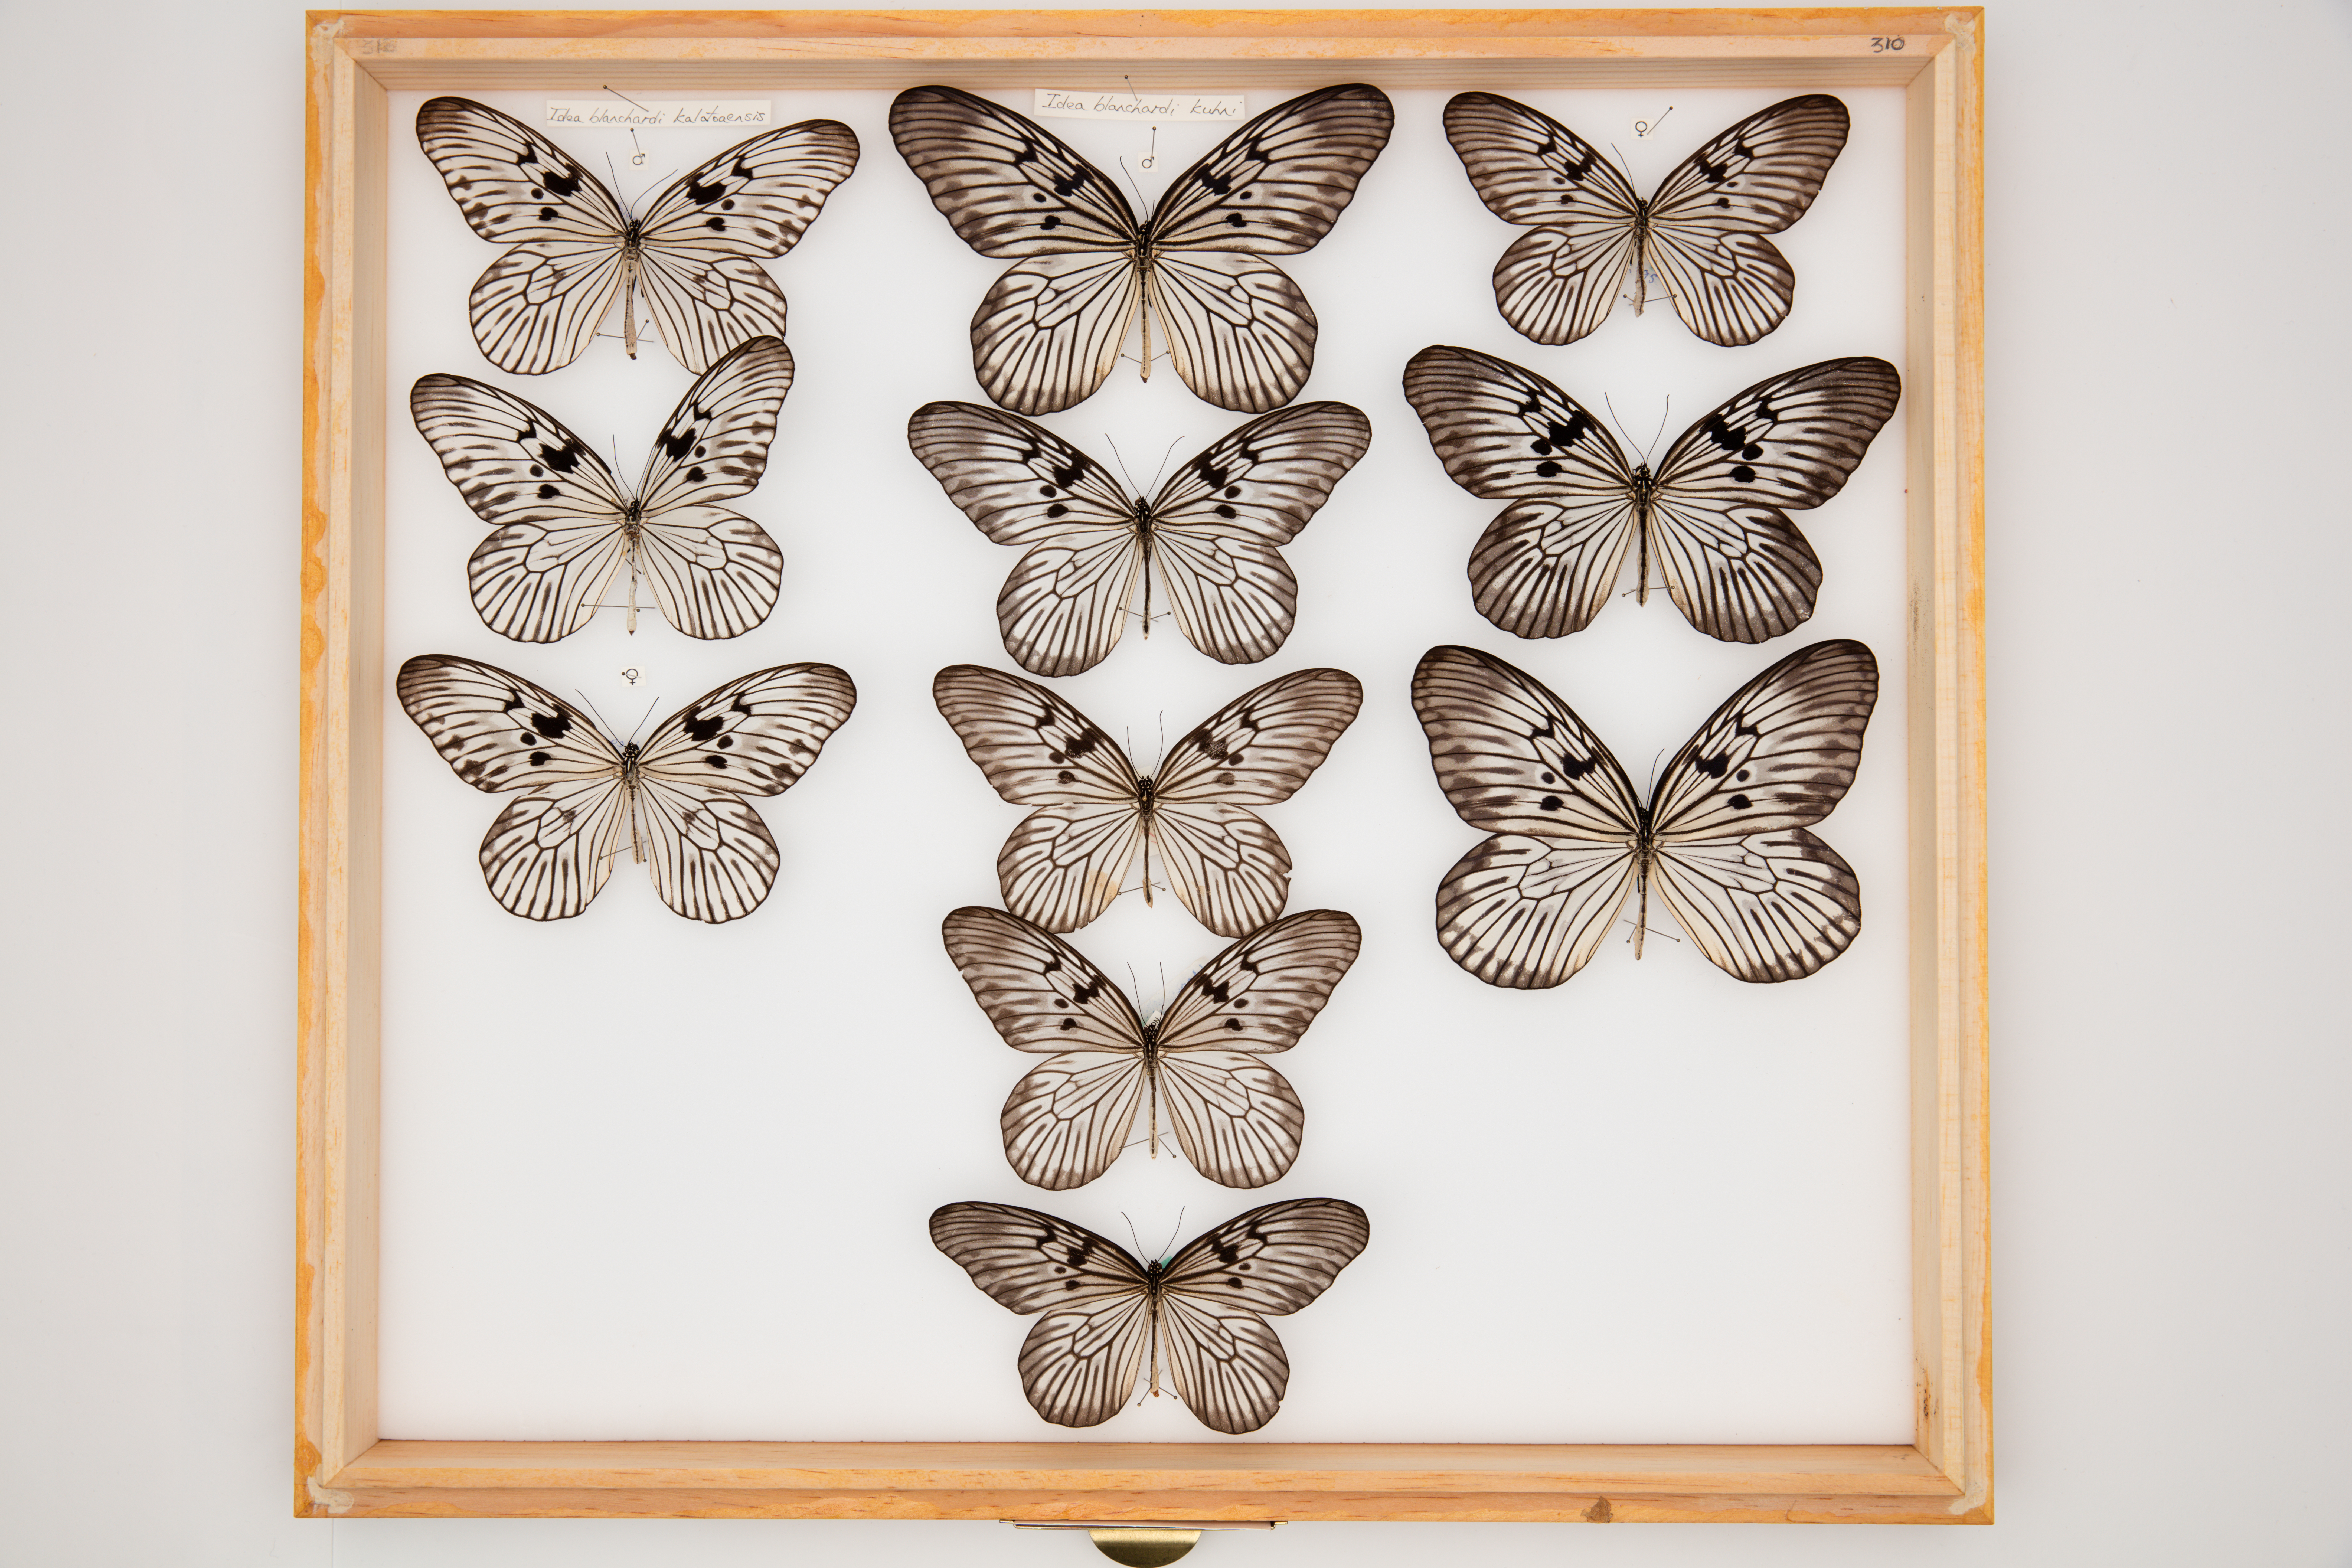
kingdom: Animalia
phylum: Arthropoda
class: Insecta
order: Lepidoptera
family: Nymphalidae
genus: Idea
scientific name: Idea blanchardii
